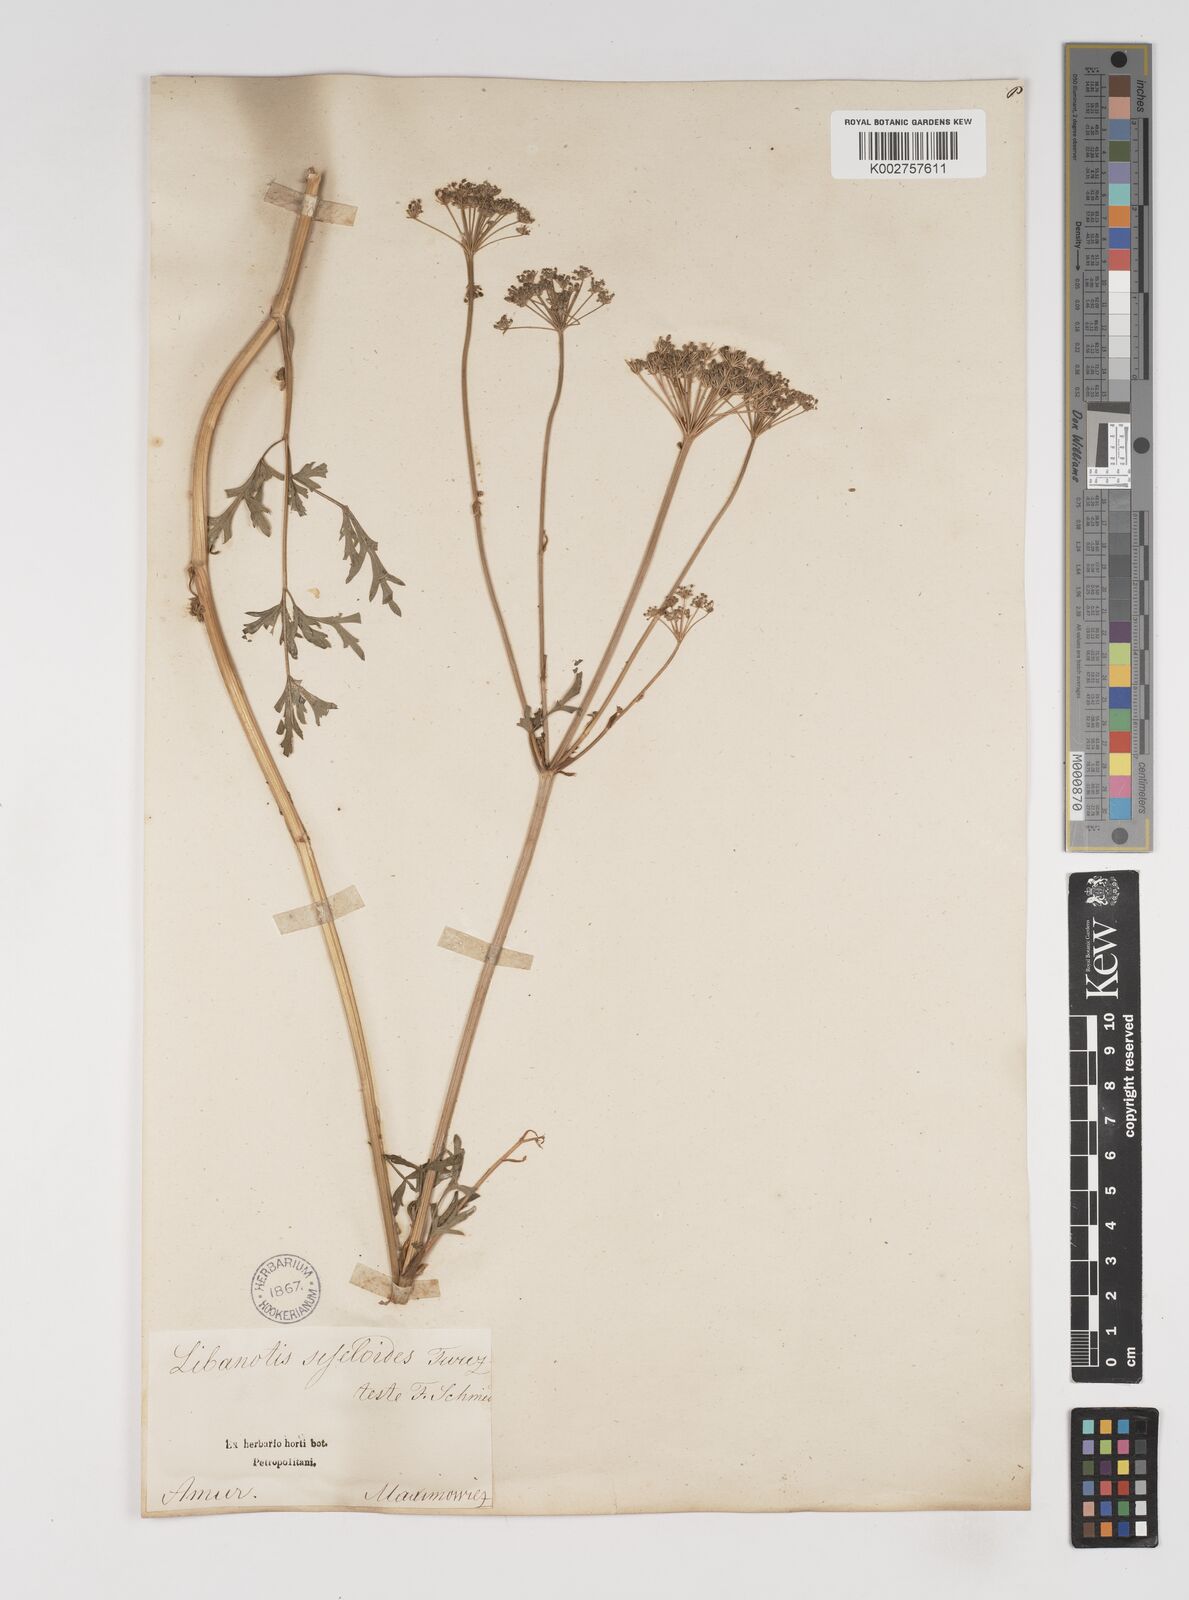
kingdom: Plantae
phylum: Tracheophyta
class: Magnoliopsida
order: Apiales
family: Apiaceae
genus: Seseli
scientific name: Seseli seseloides
